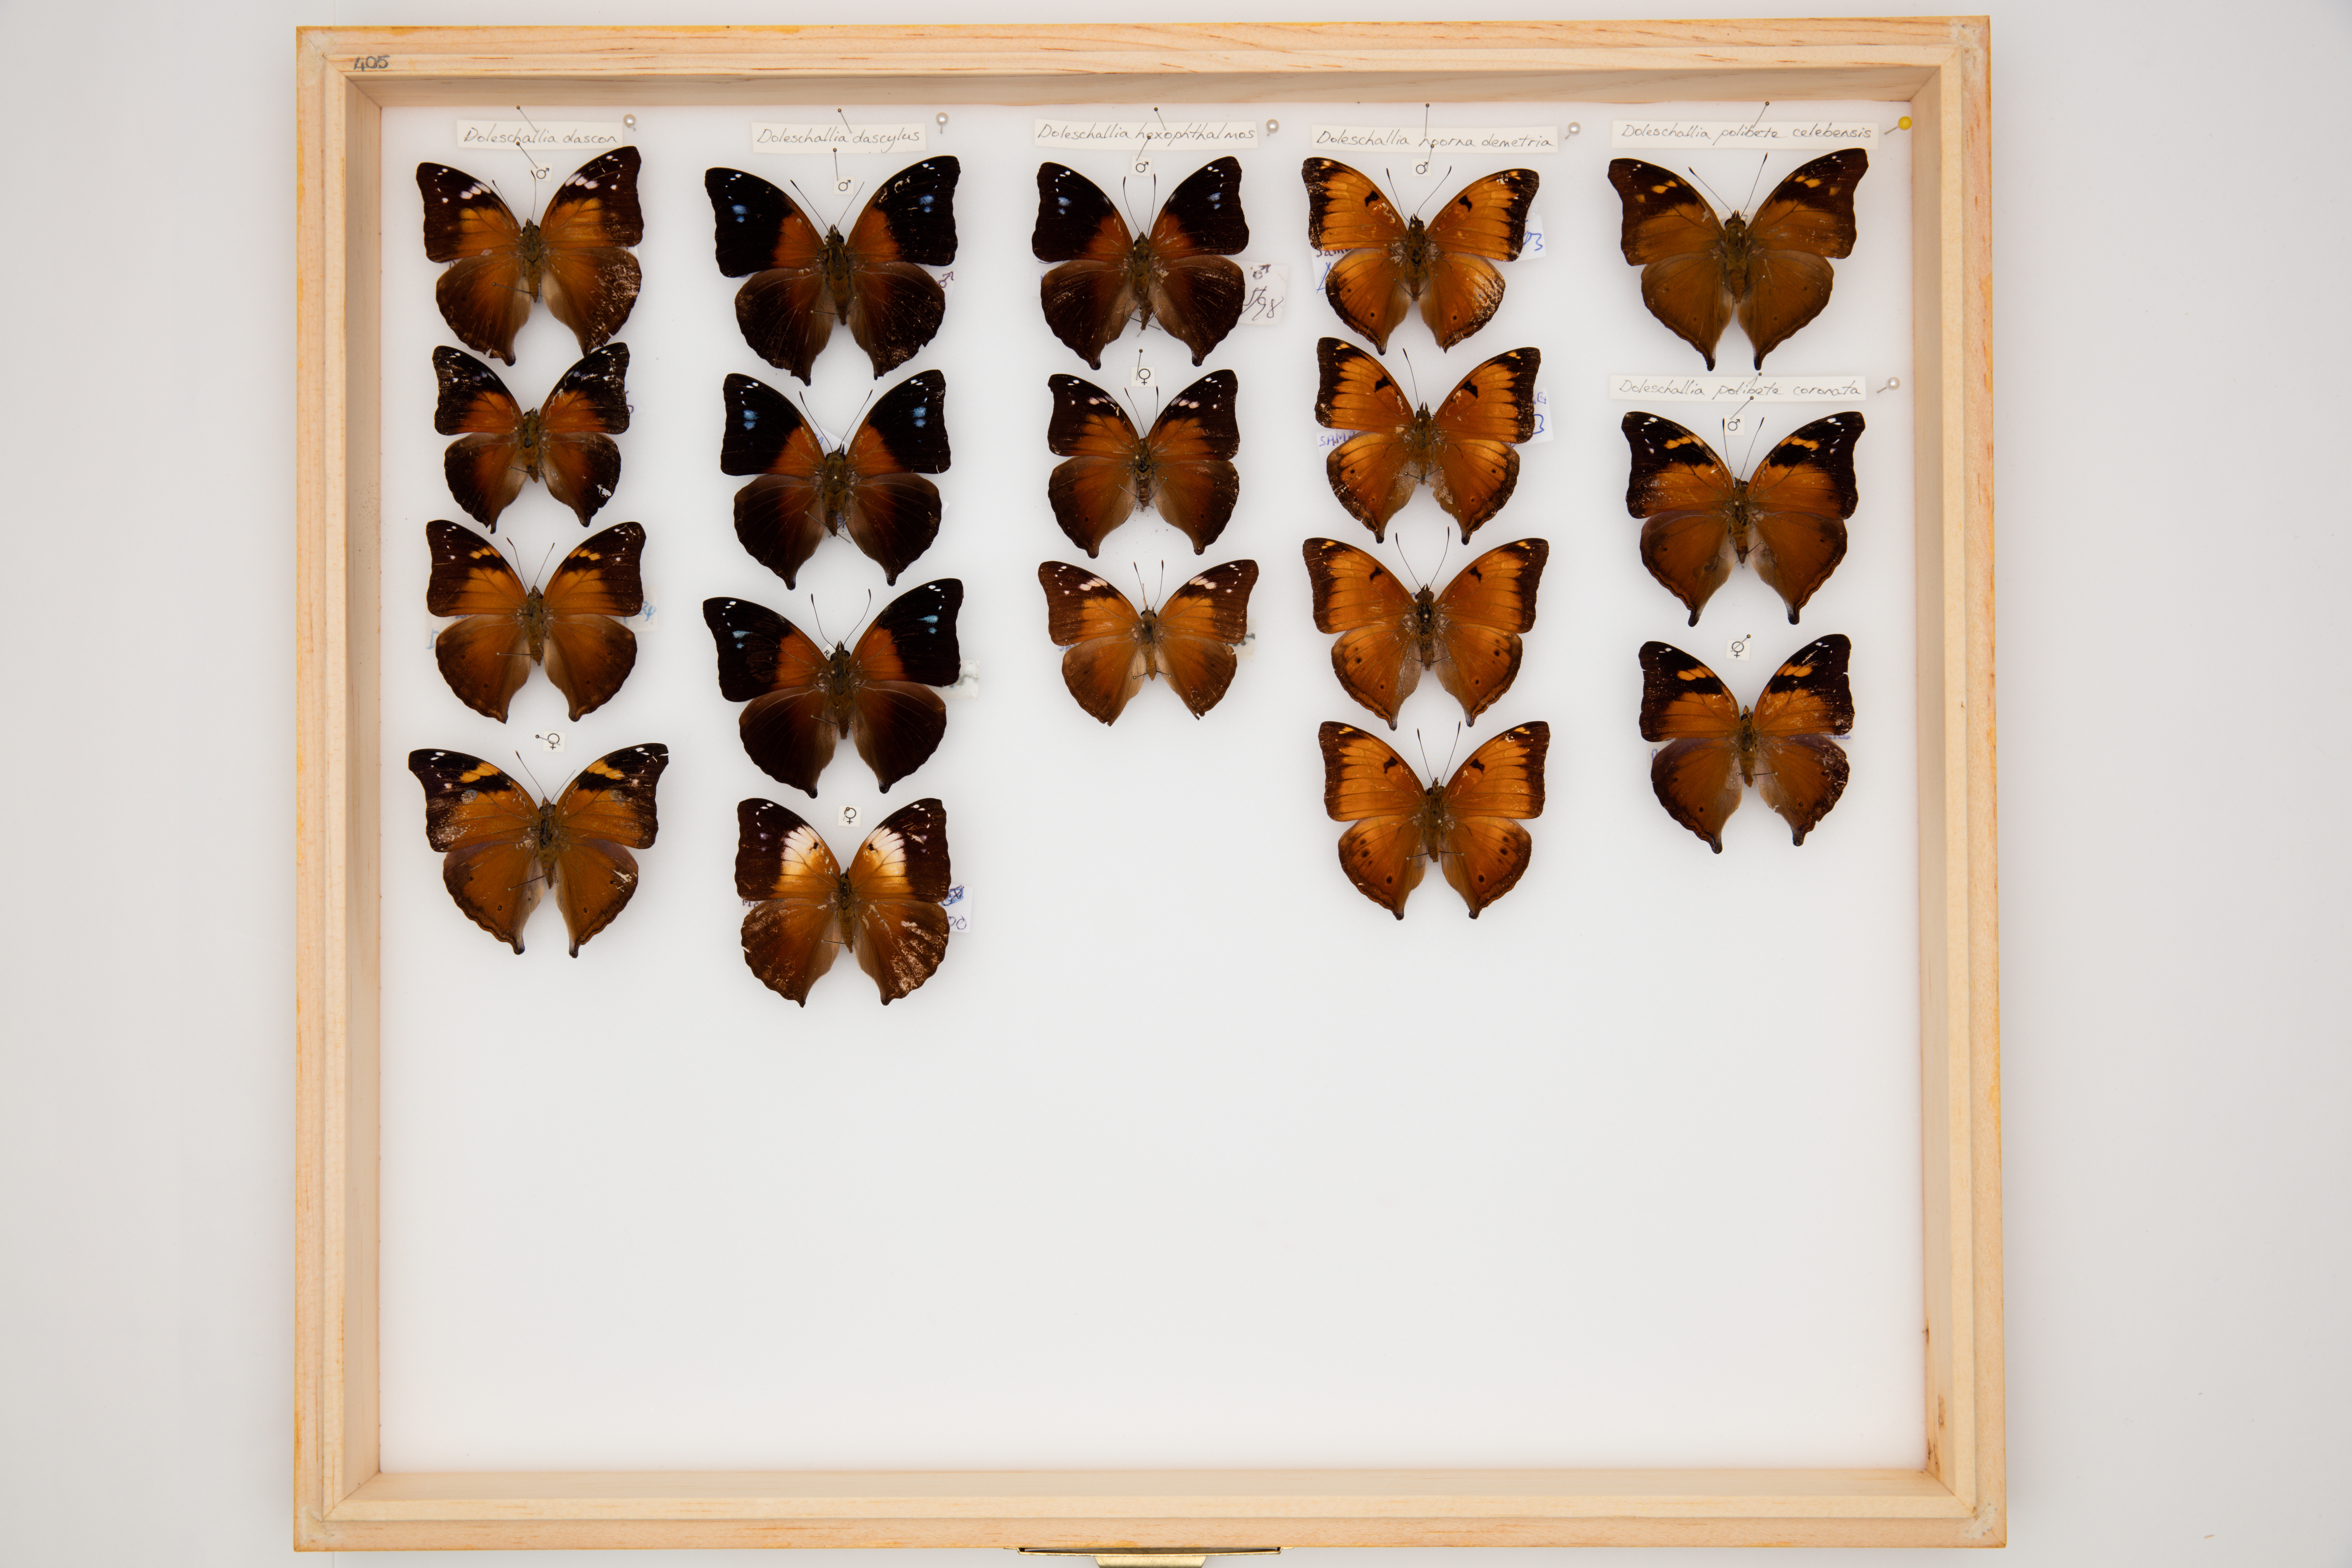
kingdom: Animalia
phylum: Arthropoda
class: Insecta
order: Lepidoptera
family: Nymphalidae
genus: Doleschallia
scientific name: Doleschallia dascylus
